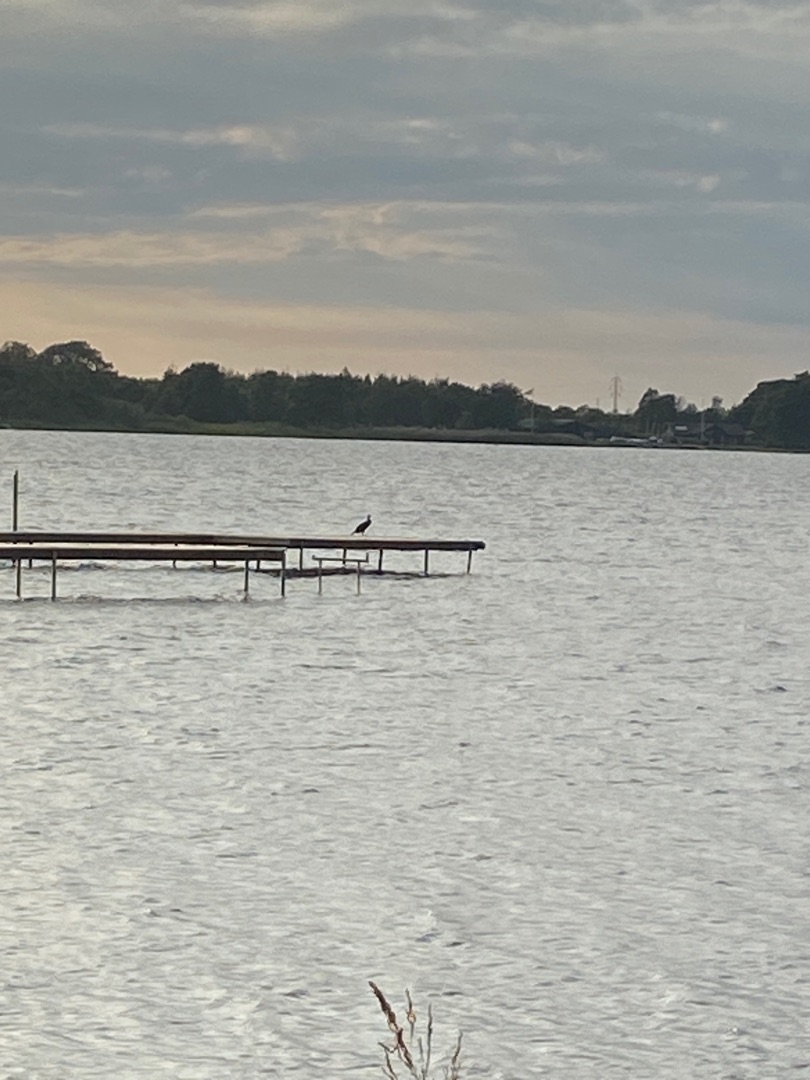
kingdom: Animalia
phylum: Chordata
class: Aves
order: Suliformes
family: Phalacrocoracidae
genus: Phalacrocorax
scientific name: Phalacrocorax carbo
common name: Skarv
